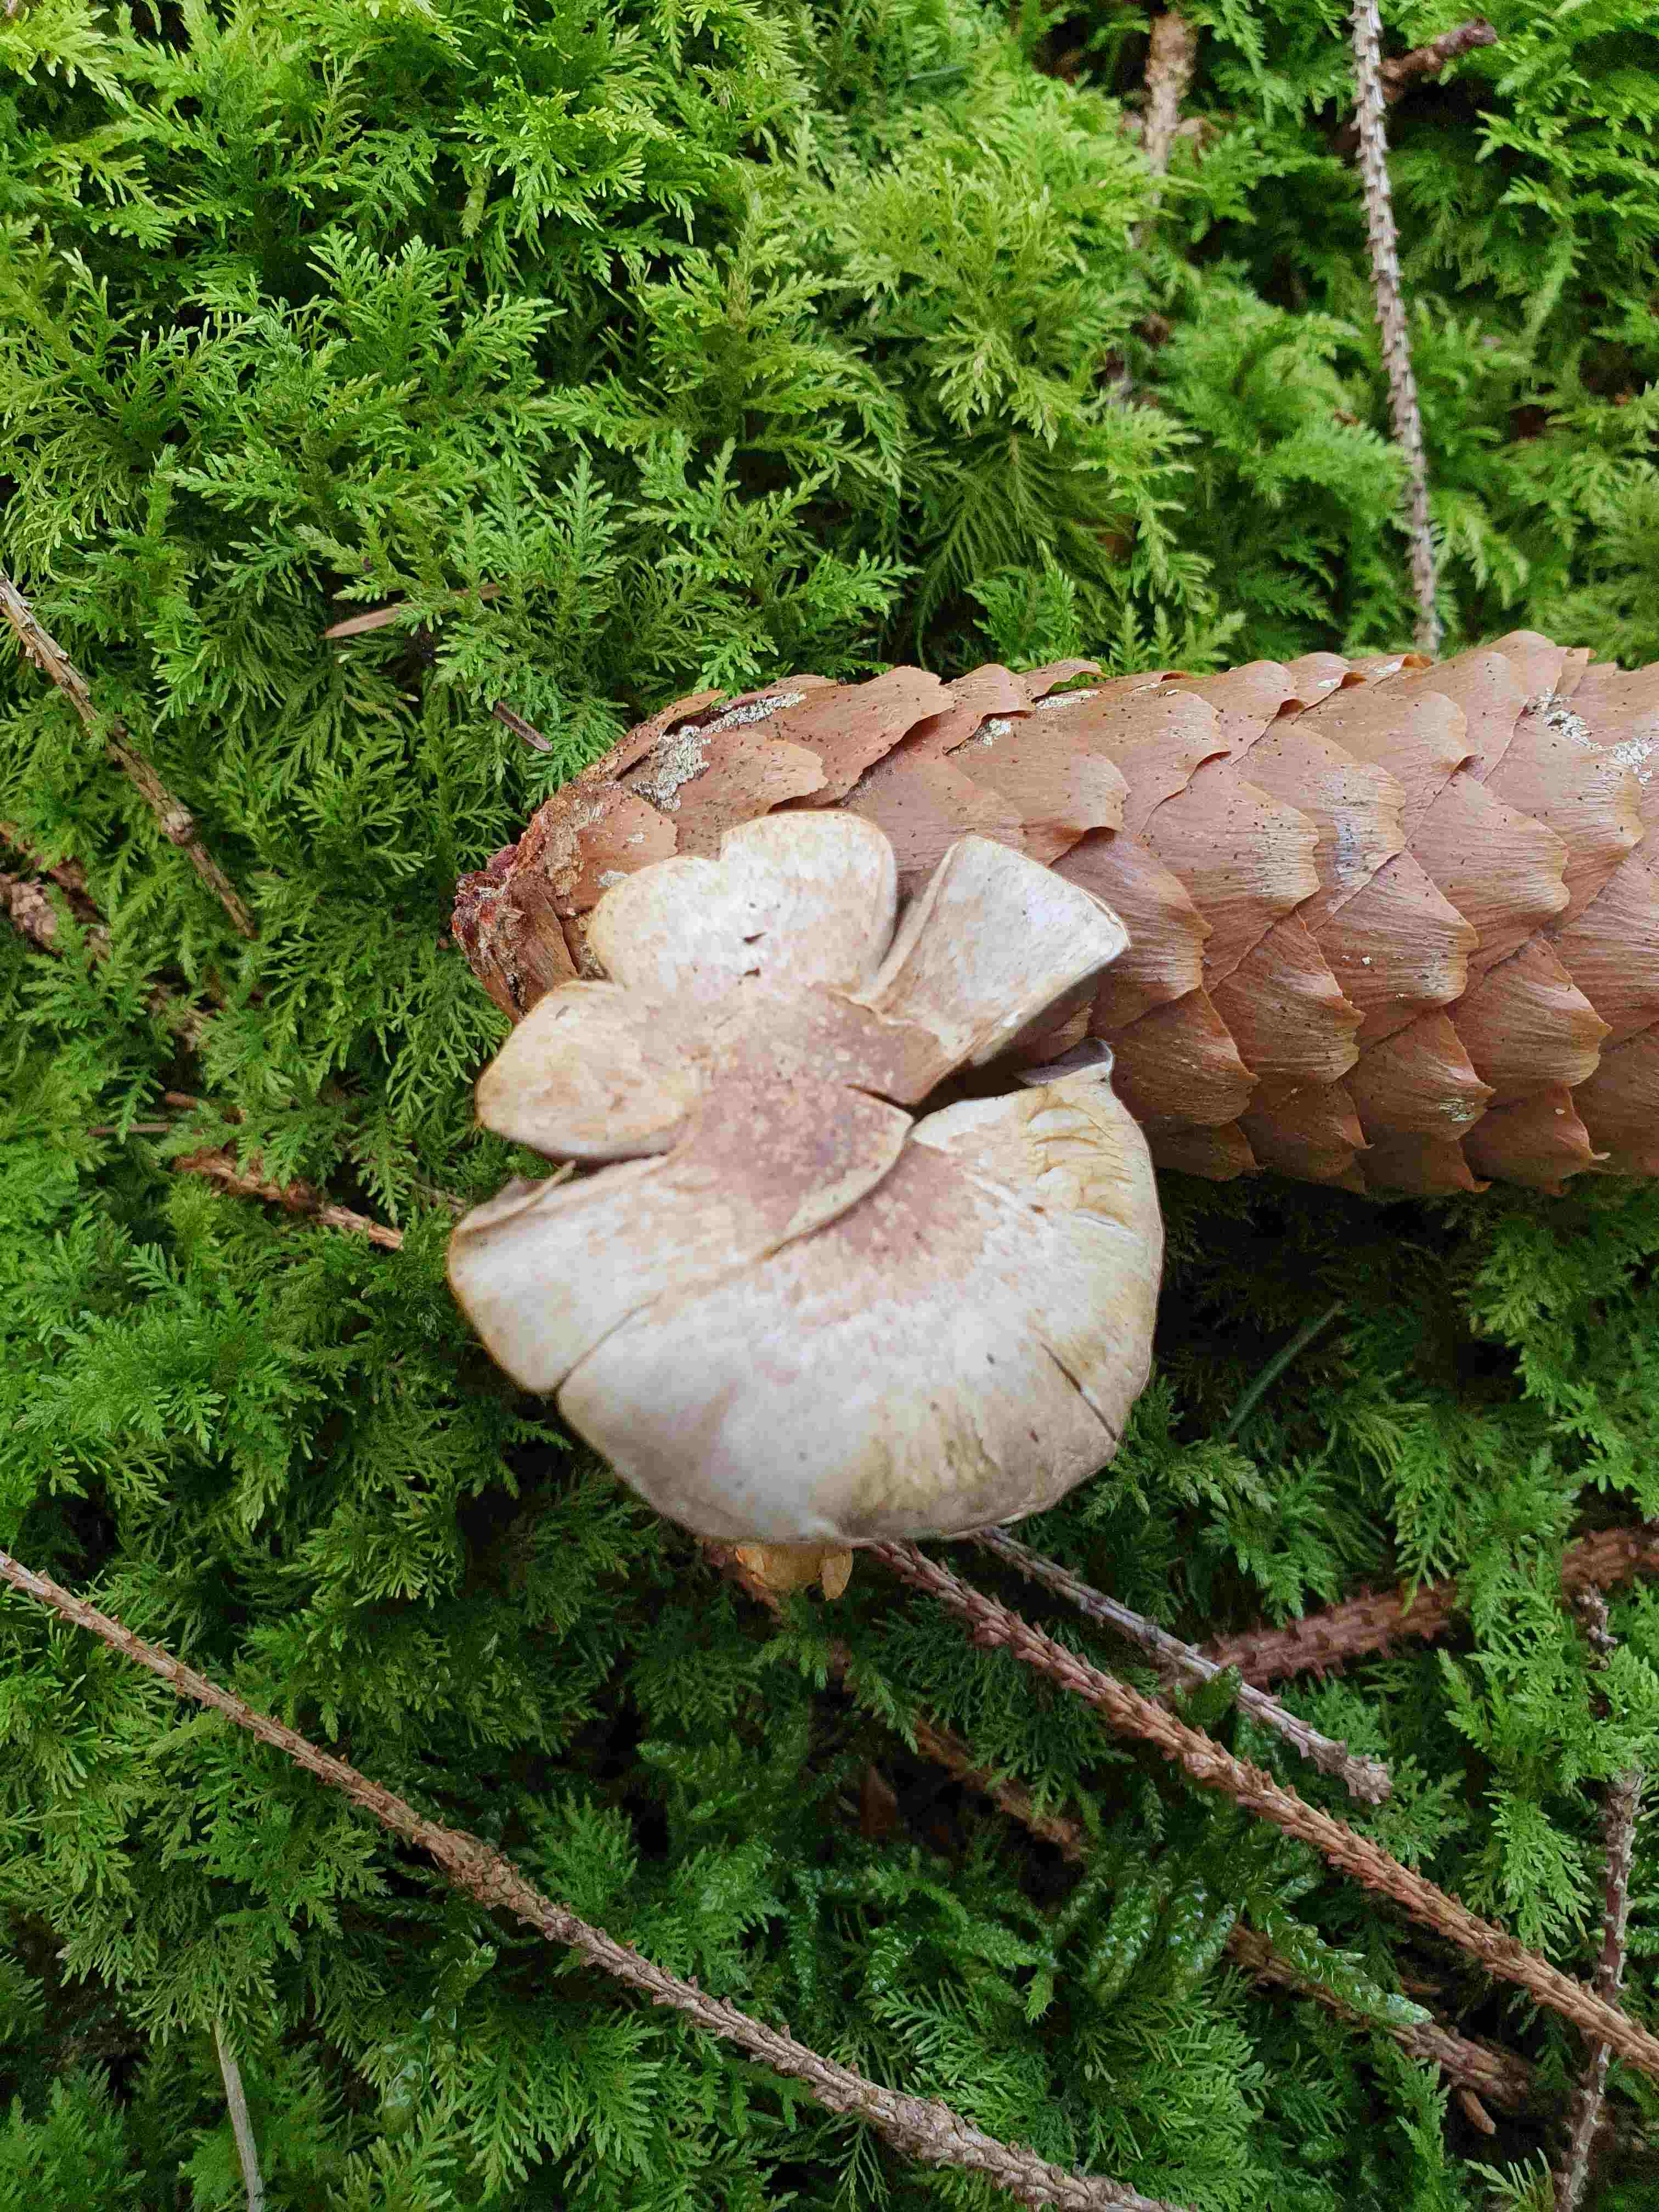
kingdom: Fungi
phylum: Basidiomycota
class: Agaricomycetes
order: Agaricales
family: Agaricaceae
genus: Agaricus
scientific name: Agaricus dulcidulus
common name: blegrød champignon
